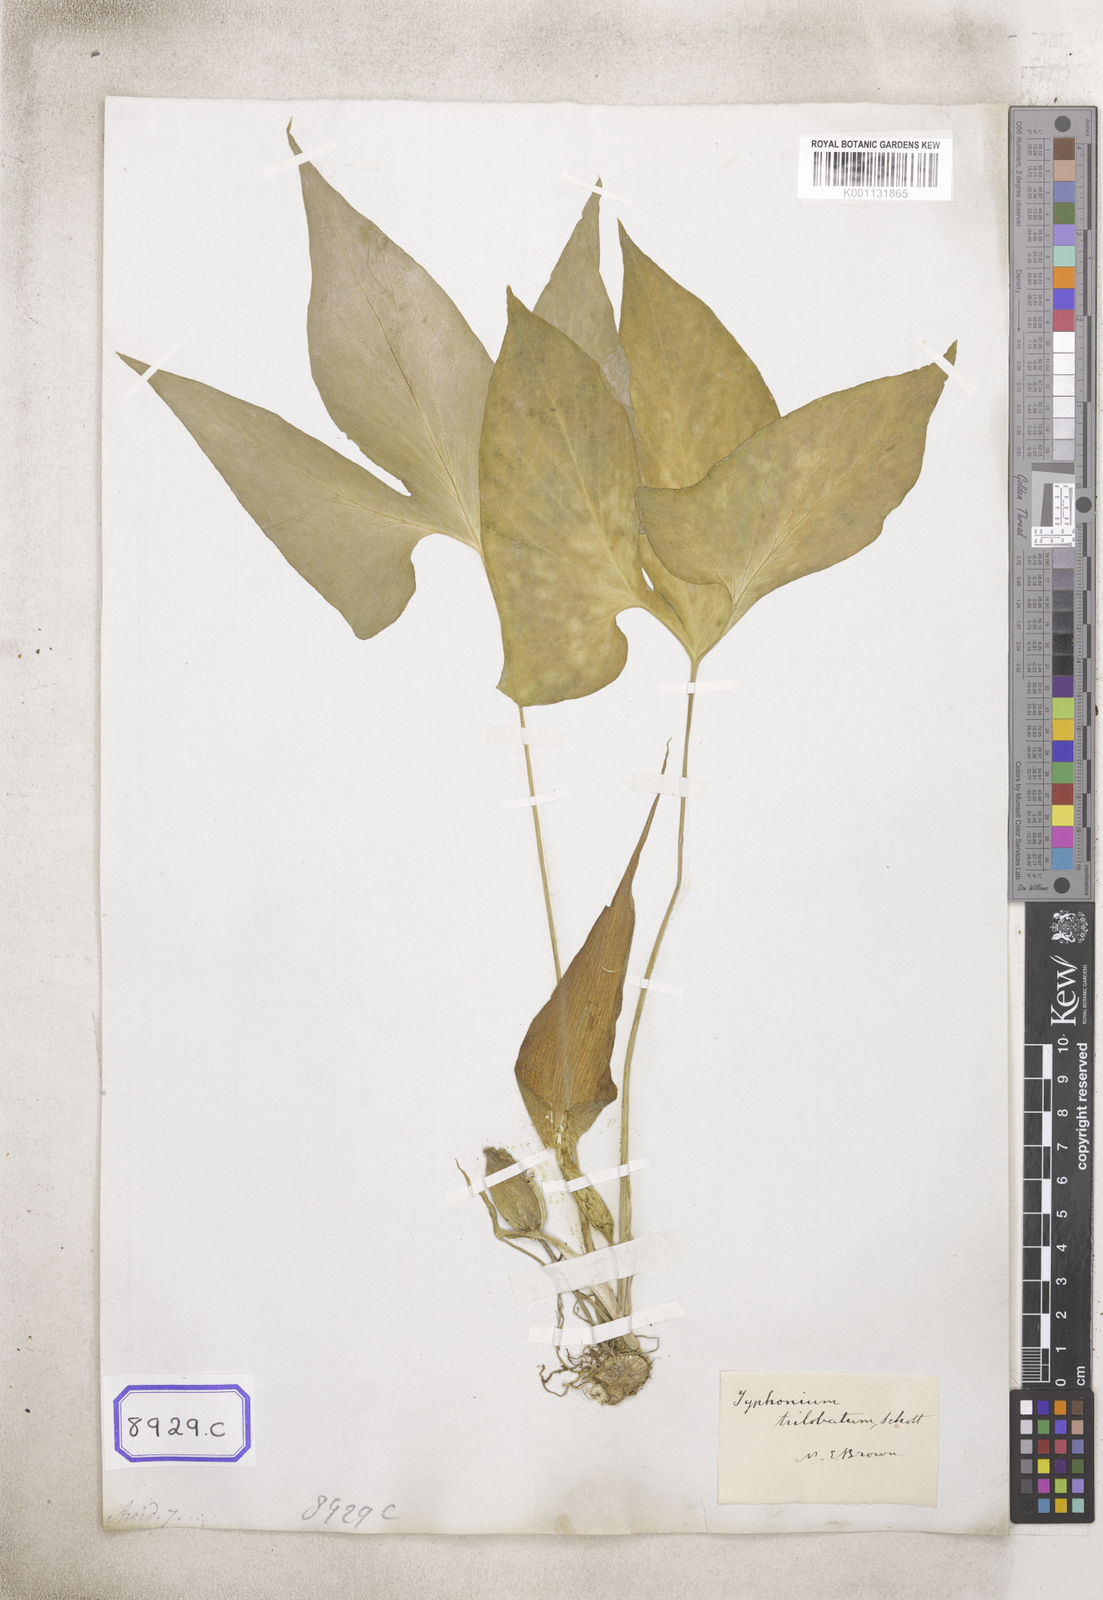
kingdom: Plantae
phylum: Tracheophyta
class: Liliopsida
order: Alismatales
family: Araceae
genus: Typhonium
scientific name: Typhonium trilobatum
